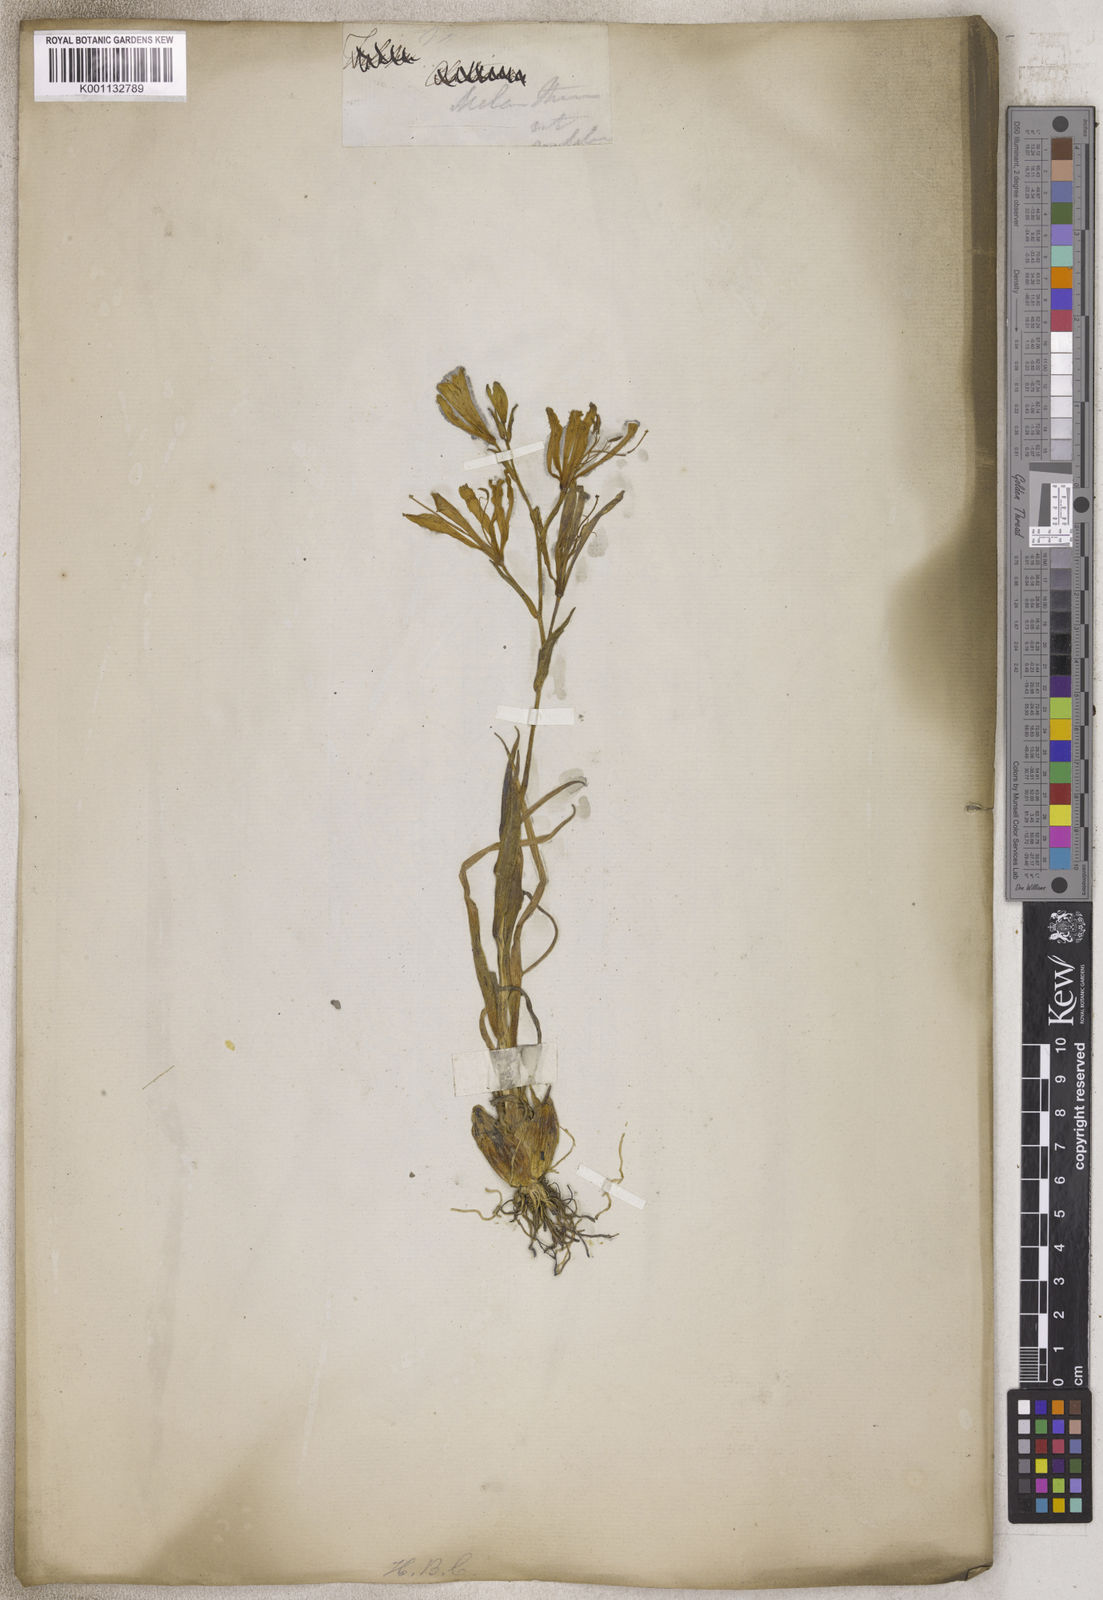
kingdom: Plantae
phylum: Tracheophyta
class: Liliopsida
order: Liliales
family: Liliaceae
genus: Tulipa
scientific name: Tulipa
